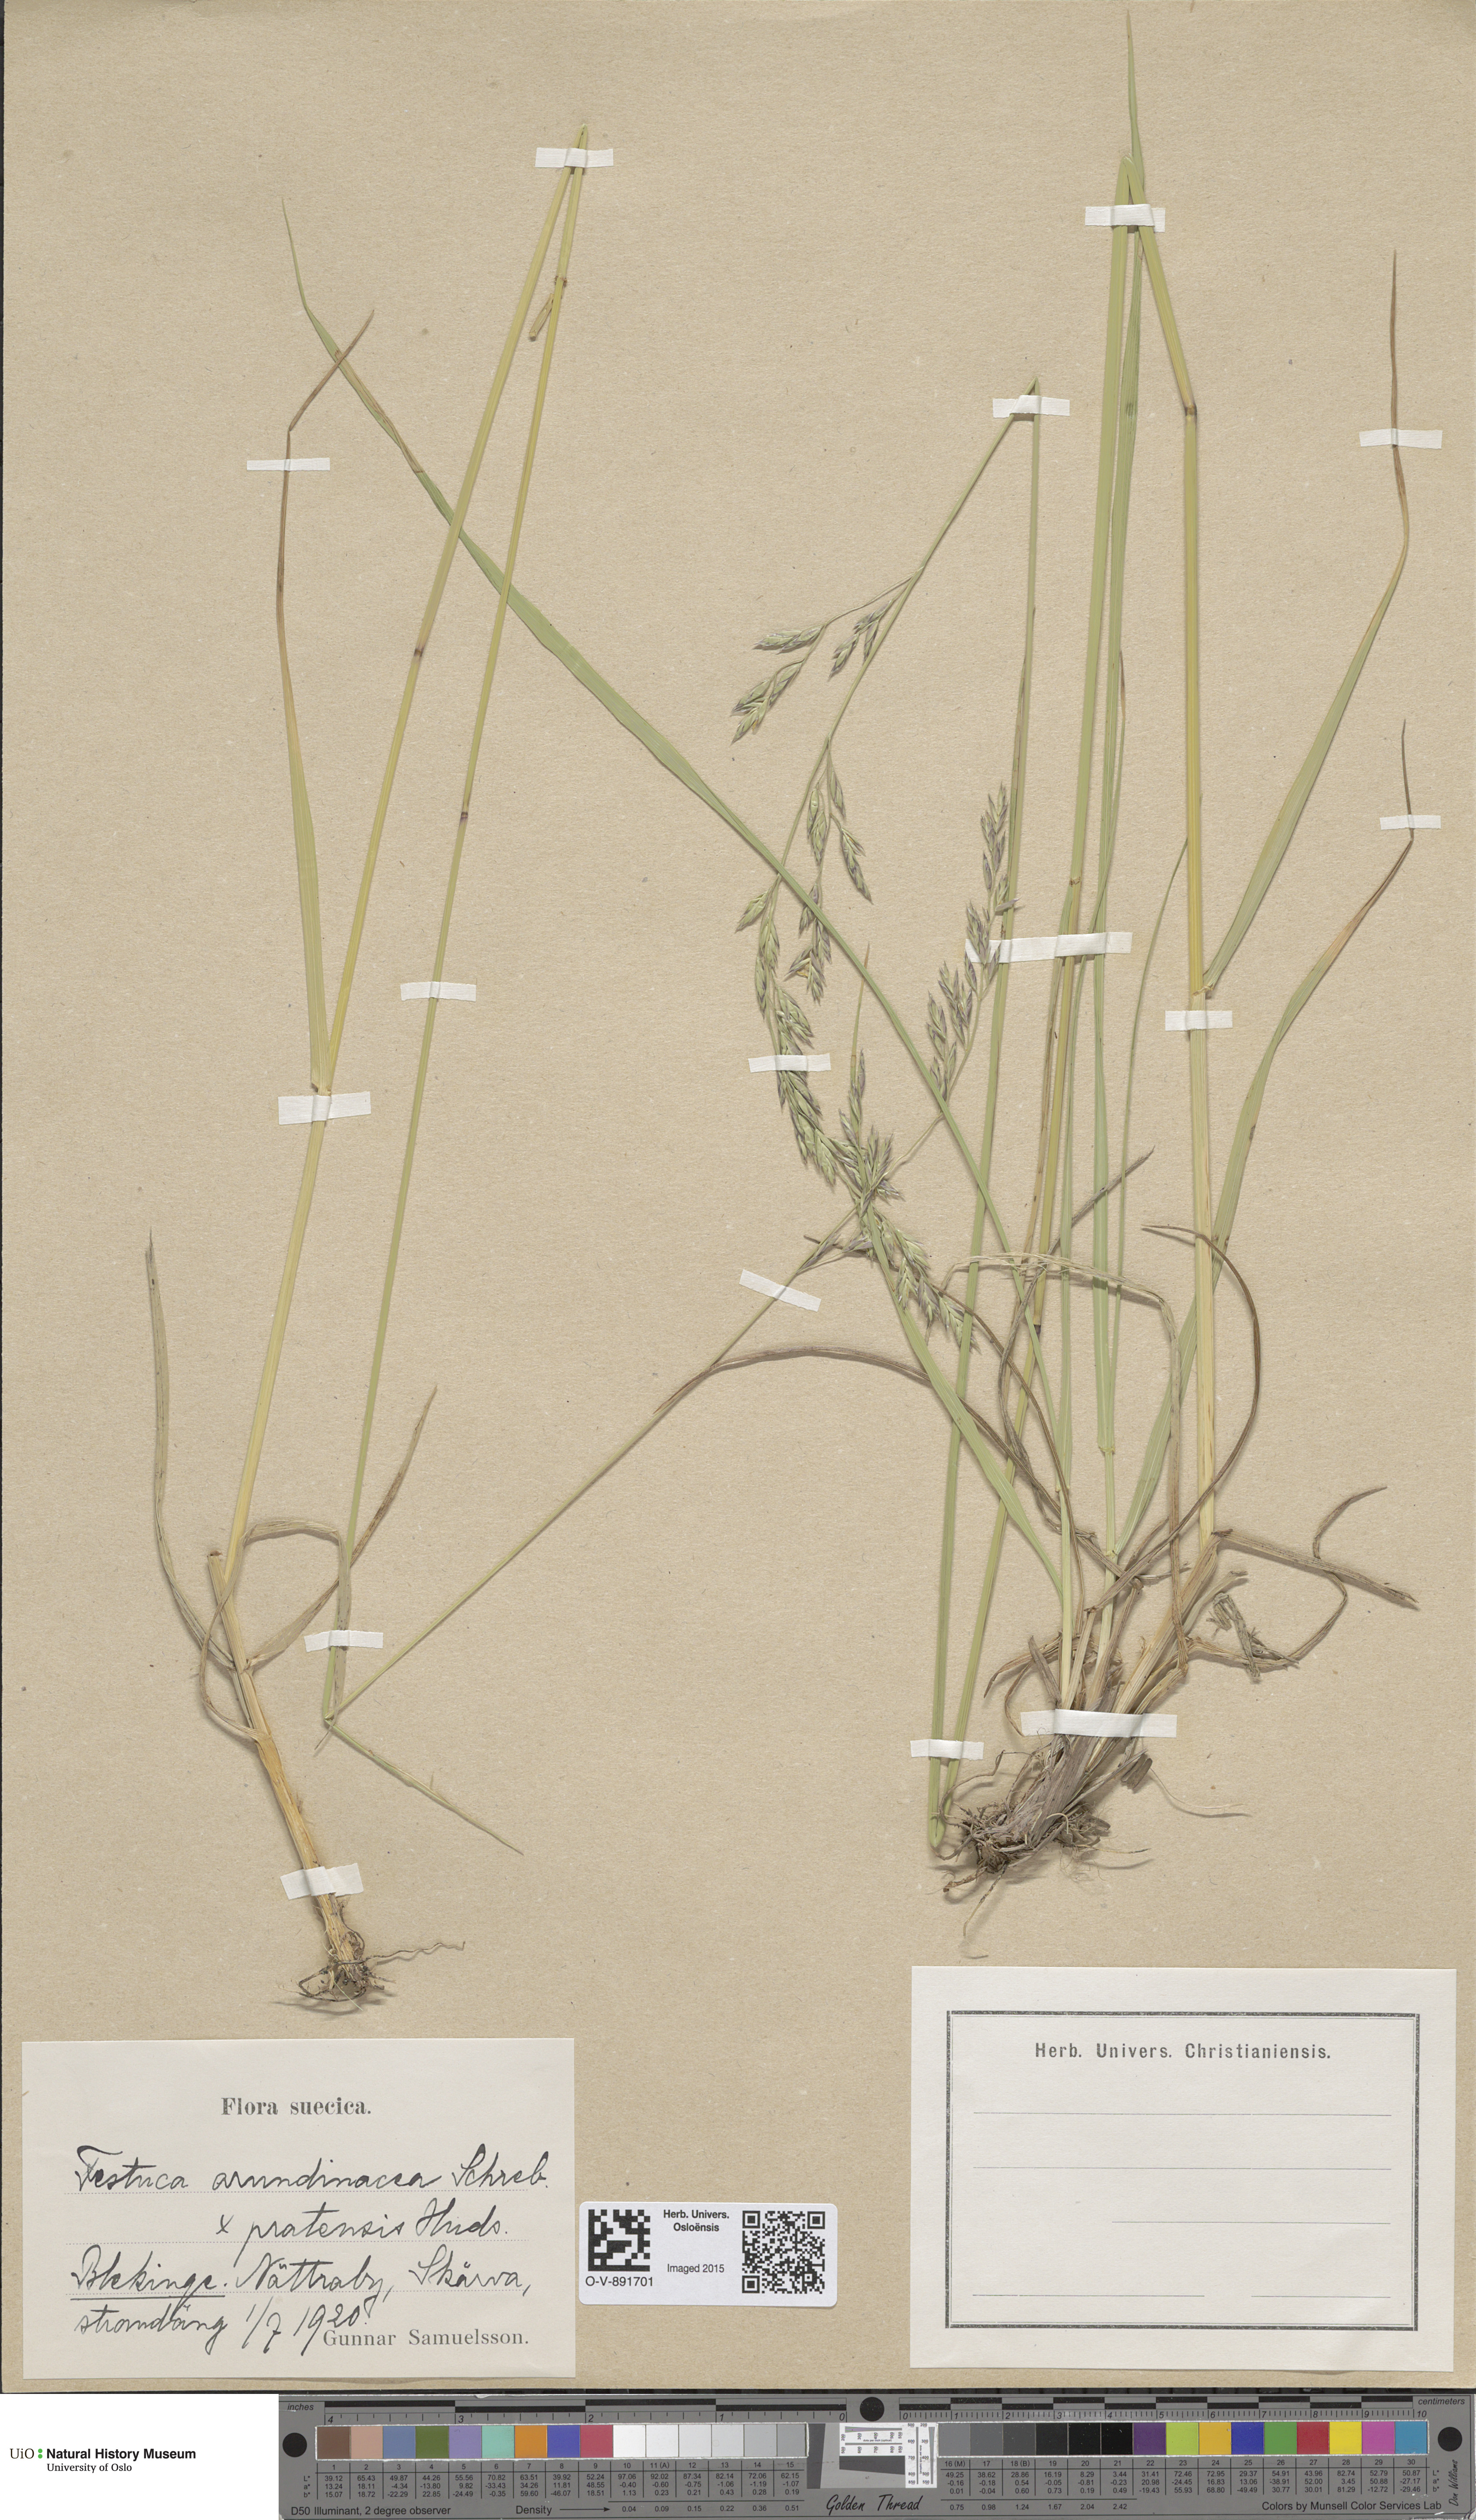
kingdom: Plantae
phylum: Tracheophyta
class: Liliopsida
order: Poales
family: Poaceae
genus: Lolium
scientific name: Lolium
